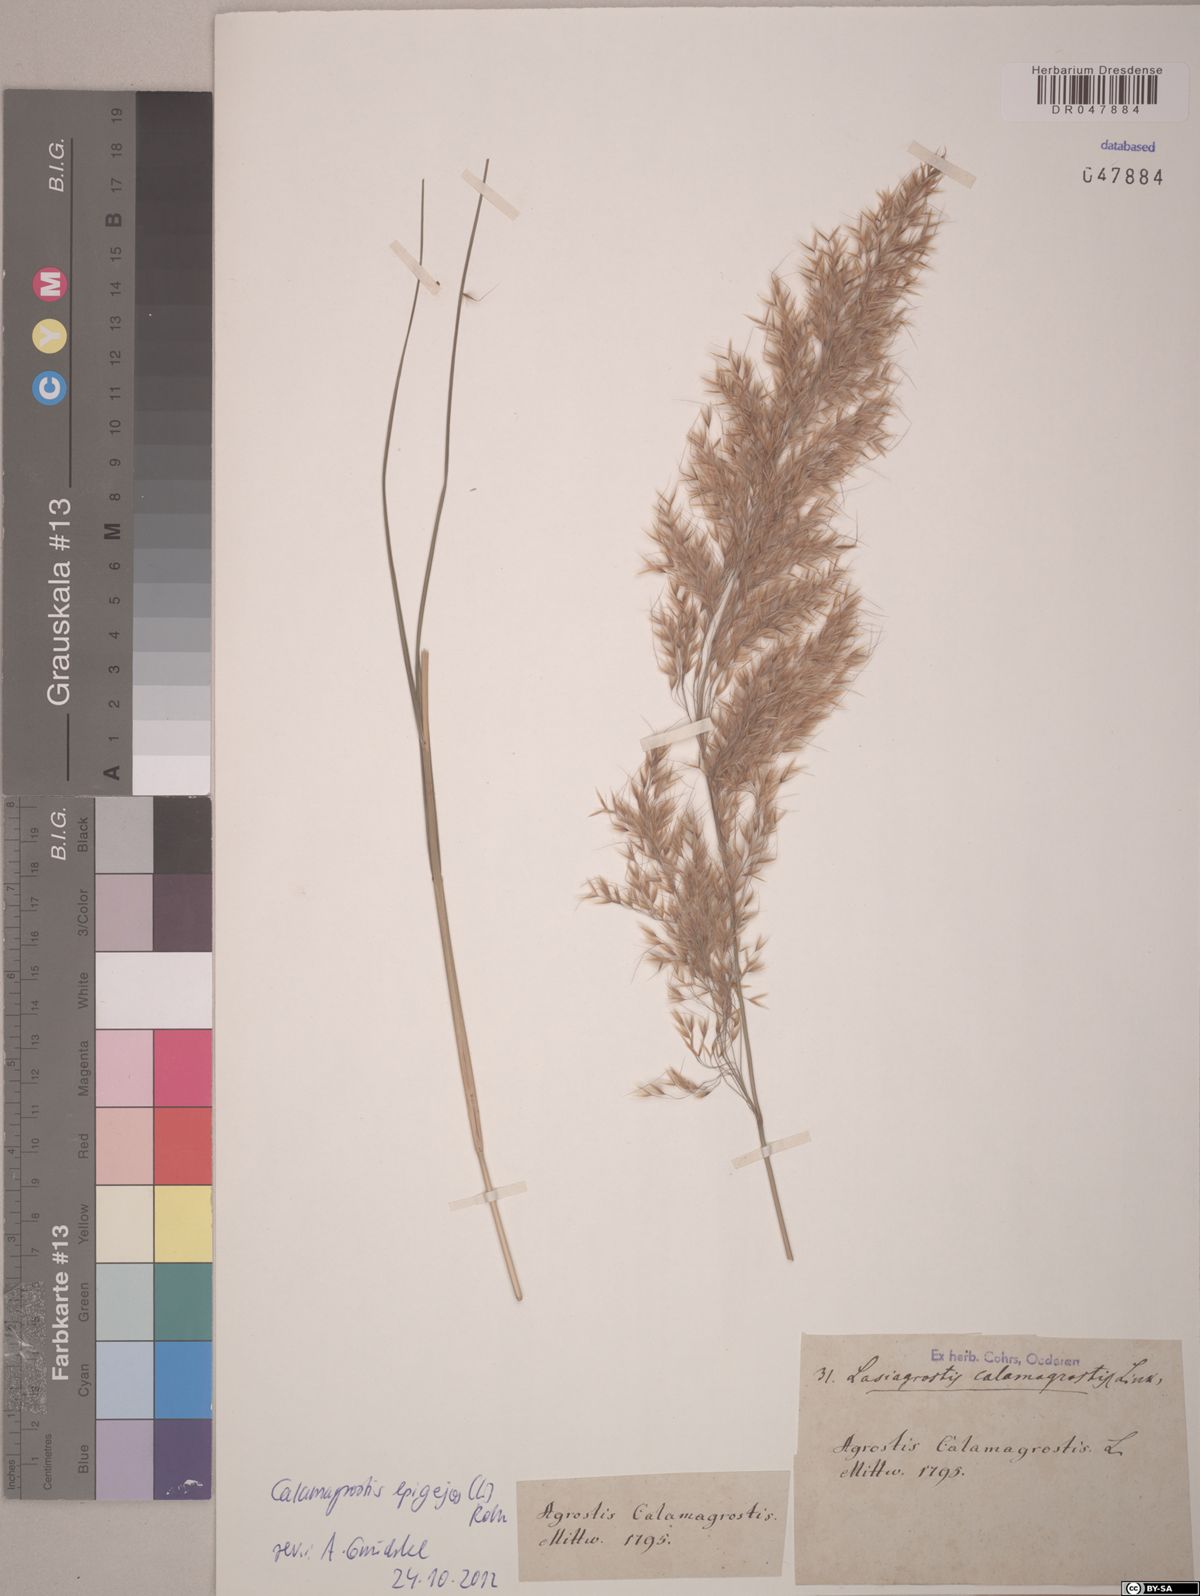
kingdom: Plantae
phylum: Tracheophyta
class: Liliopsida
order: Poales
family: Poaceae
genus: Calamagrostis
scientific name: Calamagrostis epigejos
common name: Wood small-reed
